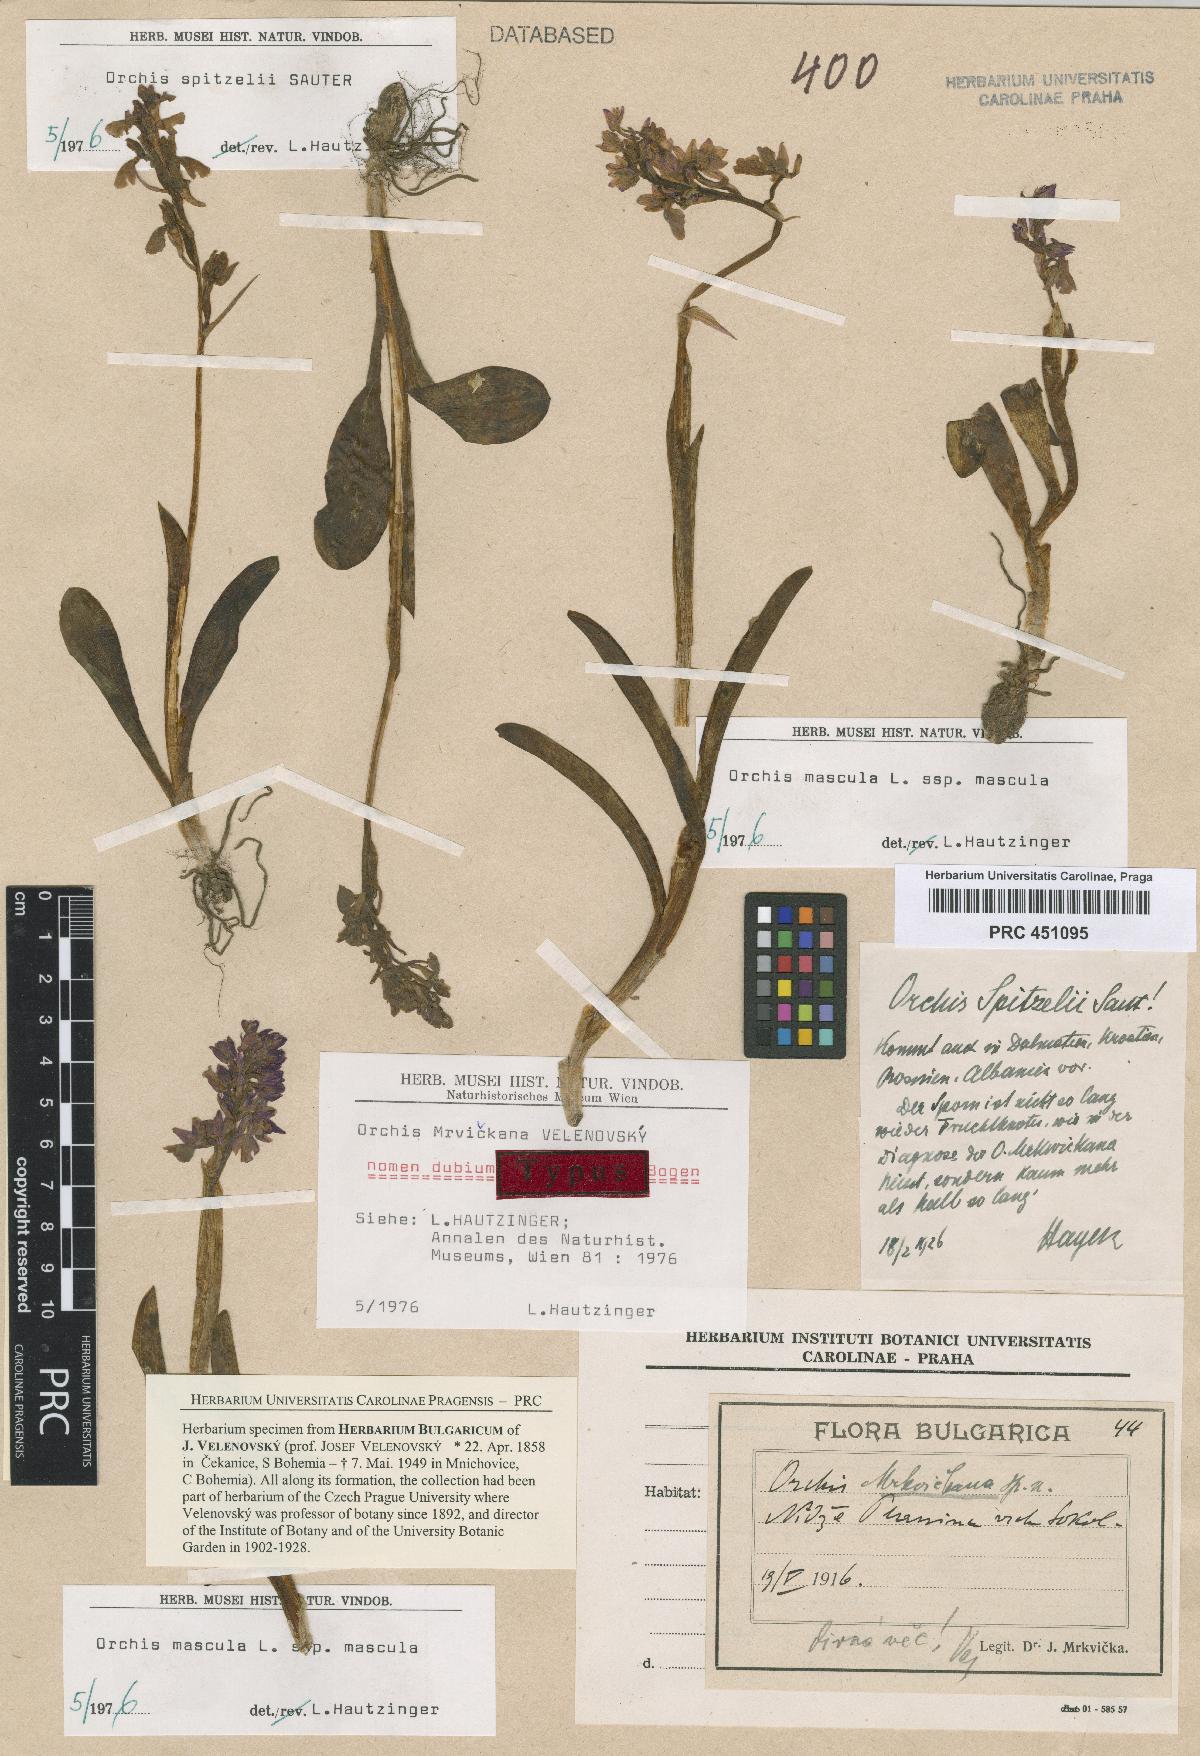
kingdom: Plantae
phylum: Tracheophyta
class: Liliopsida
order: Asparagales
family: Orchidaceae
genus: Orchis
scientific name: Orchis spitzelii
